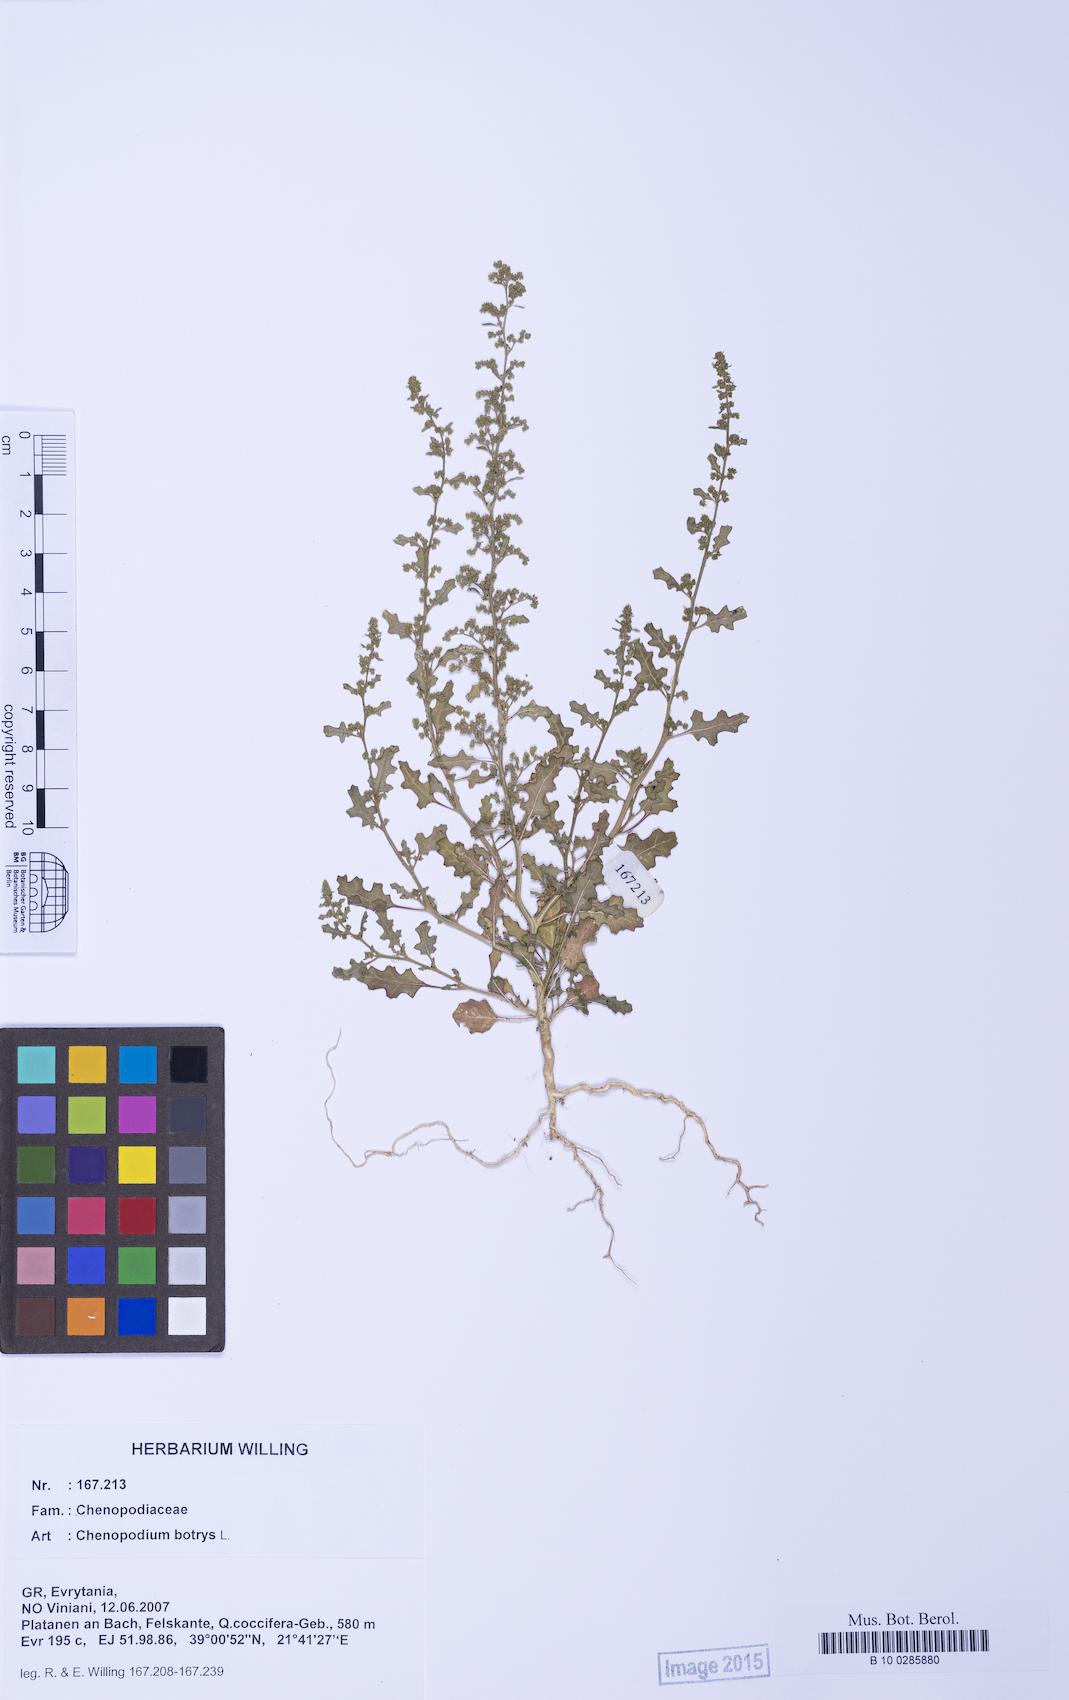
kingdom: Plantae
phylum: Tracheophyta
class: Magnoliopsida
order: Caryophyllales
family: Amaranthaceae
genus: Dysphania
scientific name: Dysphania botrys
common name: Feather-geranium
